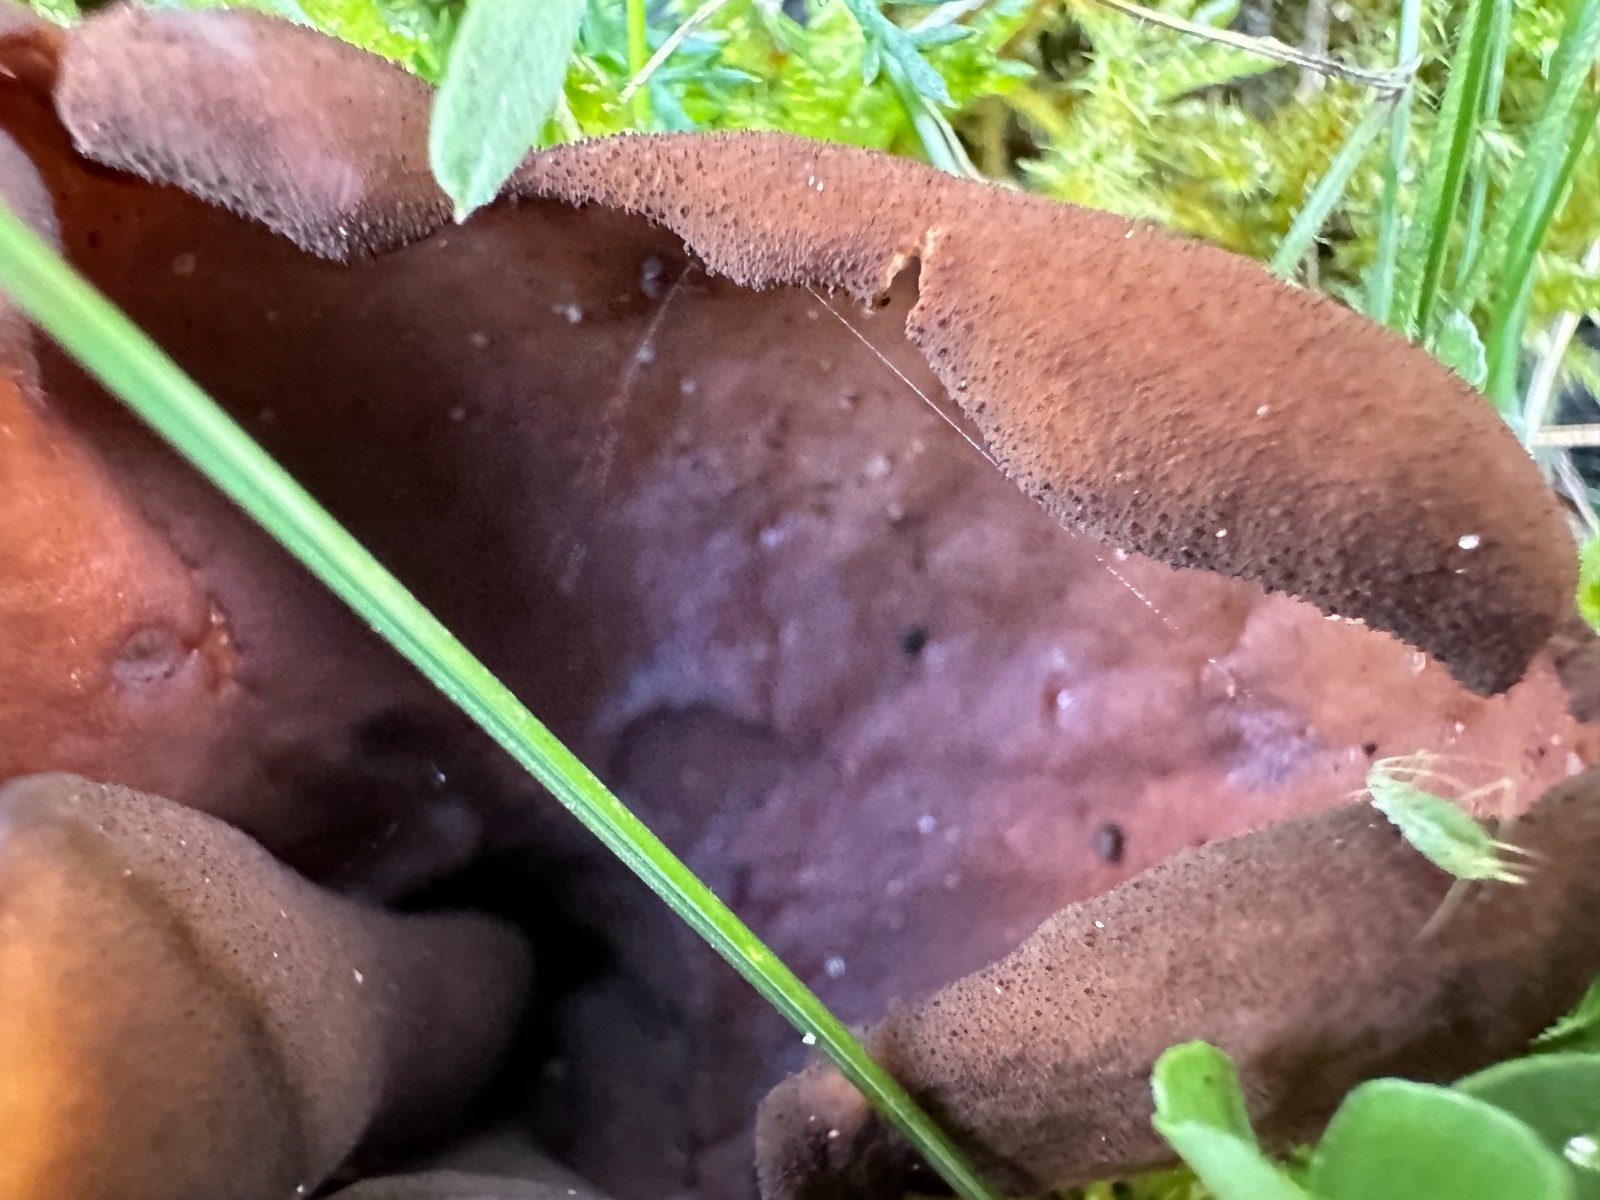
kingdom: Fungi
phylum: Ascomycota
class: Pezizomycetes
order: Pezizales
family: Otideaceae
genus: Otidea
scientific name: Otidea bufonia
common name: brun ørebæger
